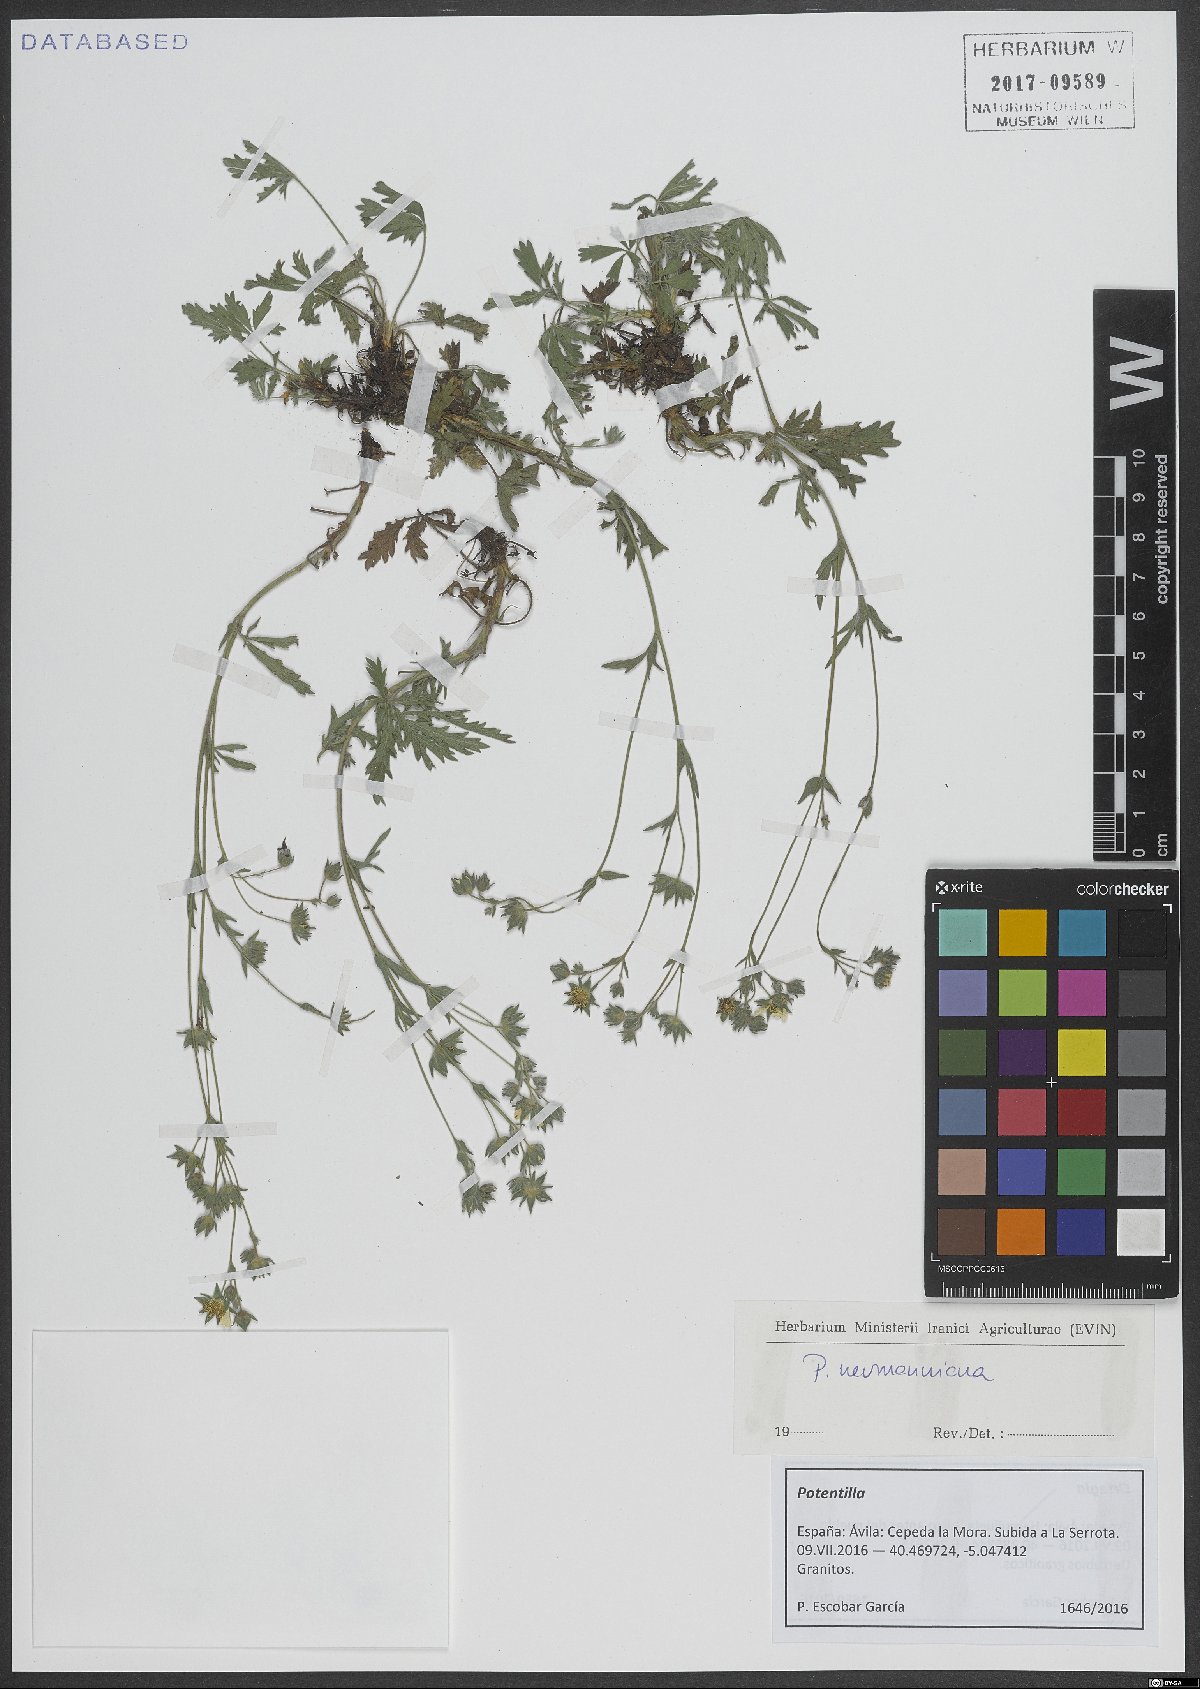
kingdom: Plantae
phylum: Tracheophyta
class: Magnoliopsida
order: Rosales
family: Rosaceae
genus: Potentilla
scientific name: Potentilla verna
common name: Spring cinquefoil
